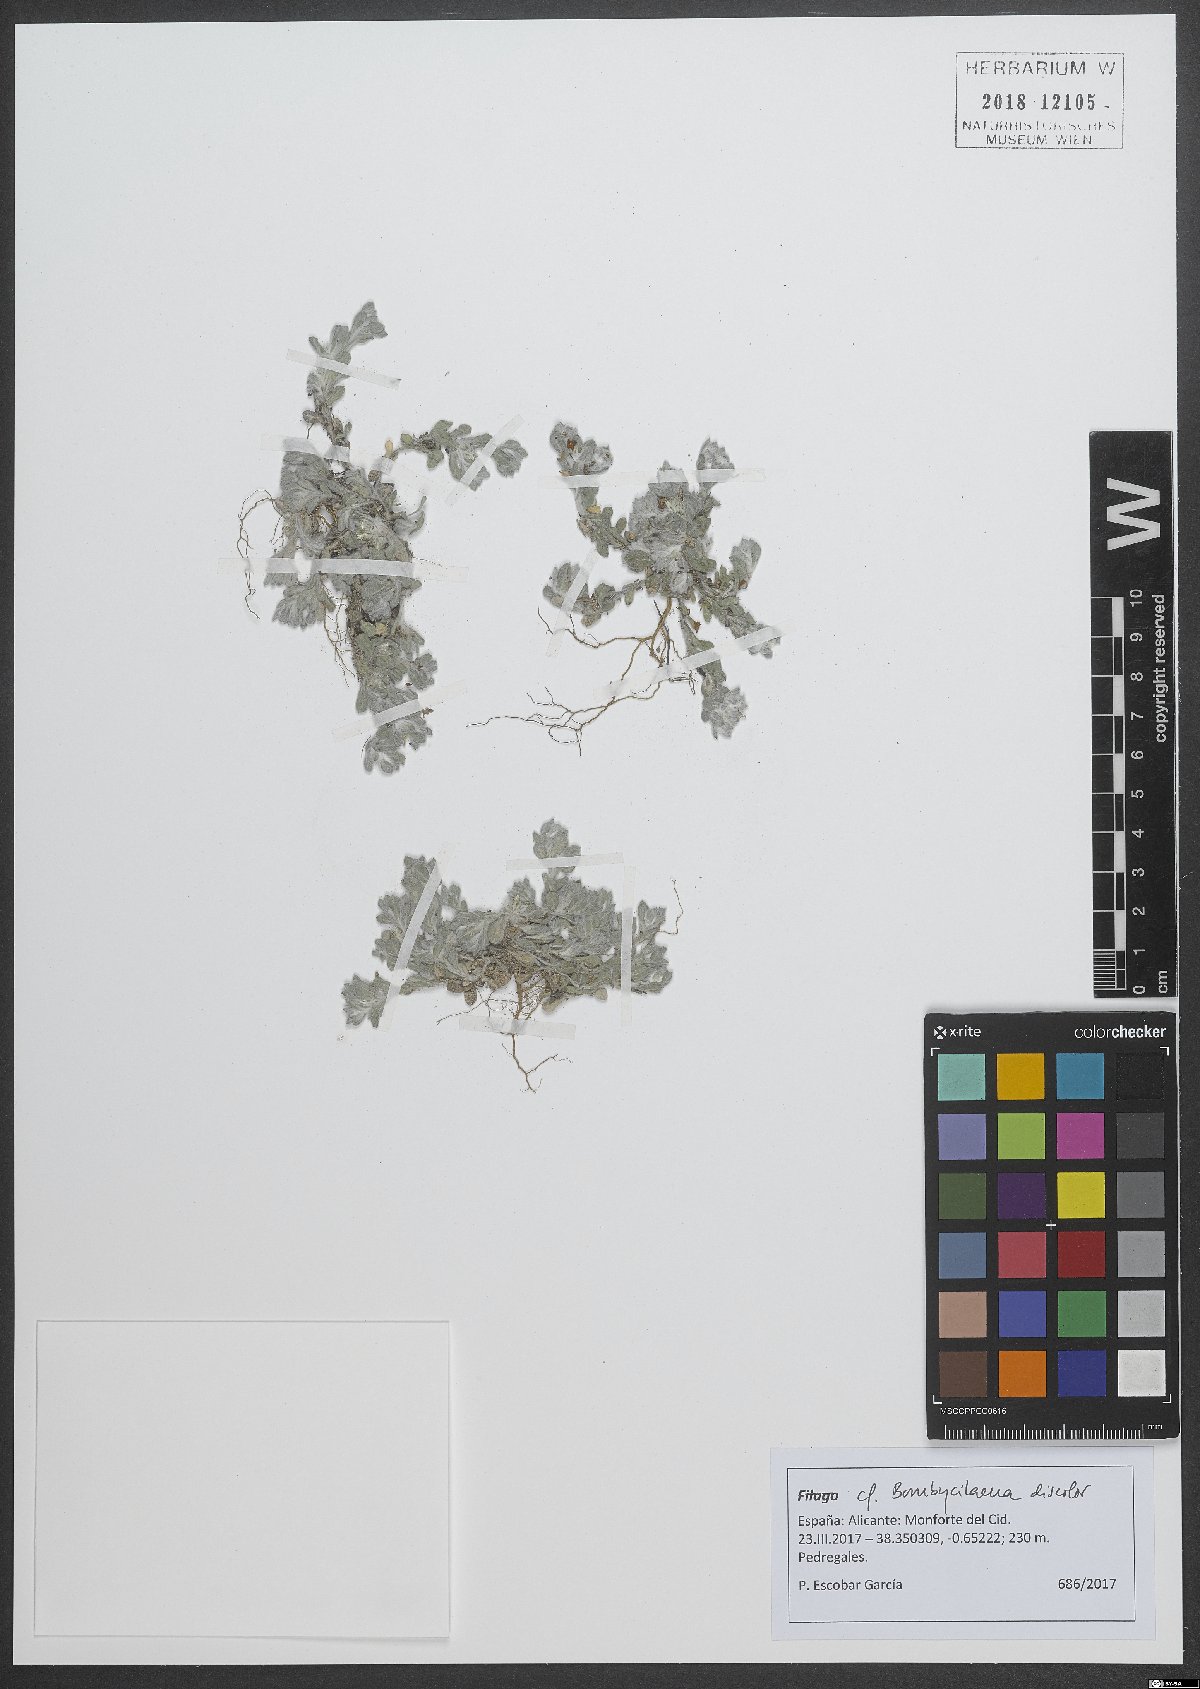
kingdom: Plantae
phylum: Tracheophyta
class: Magnoliopsida
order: Asterales
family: Asteraceae
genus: Bombycilaena
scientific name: Bombycilaena discolor
